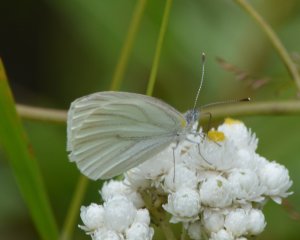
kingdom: Animalia
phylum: Arthropoda
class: Insecta
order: Lepidoptera
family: Pieridae
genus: Pieris
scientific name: Pieris oleracea
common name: Mustard White
